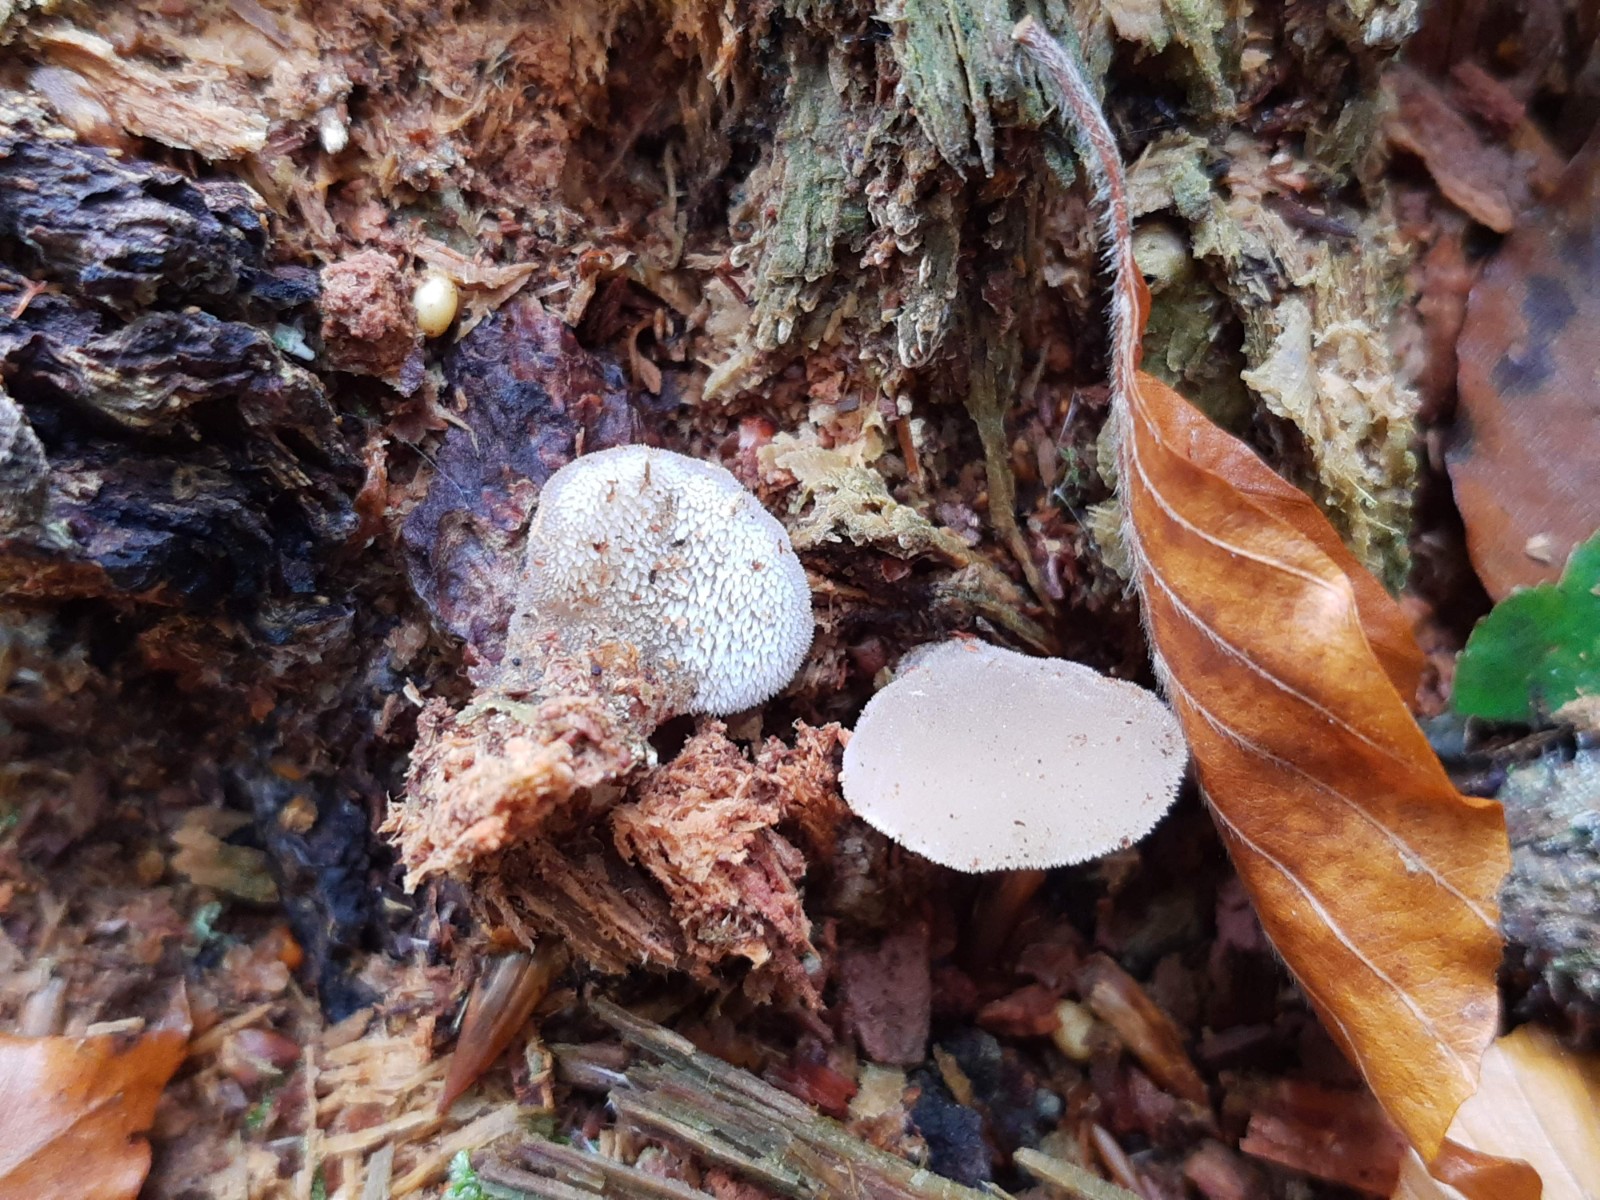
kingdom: Fungi
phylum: Basidiomycota
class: Agaricomycetes
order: Auriculariales
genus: Pseudohydnum
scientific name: Pseudohydnum gelatinosum
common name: bævretand
